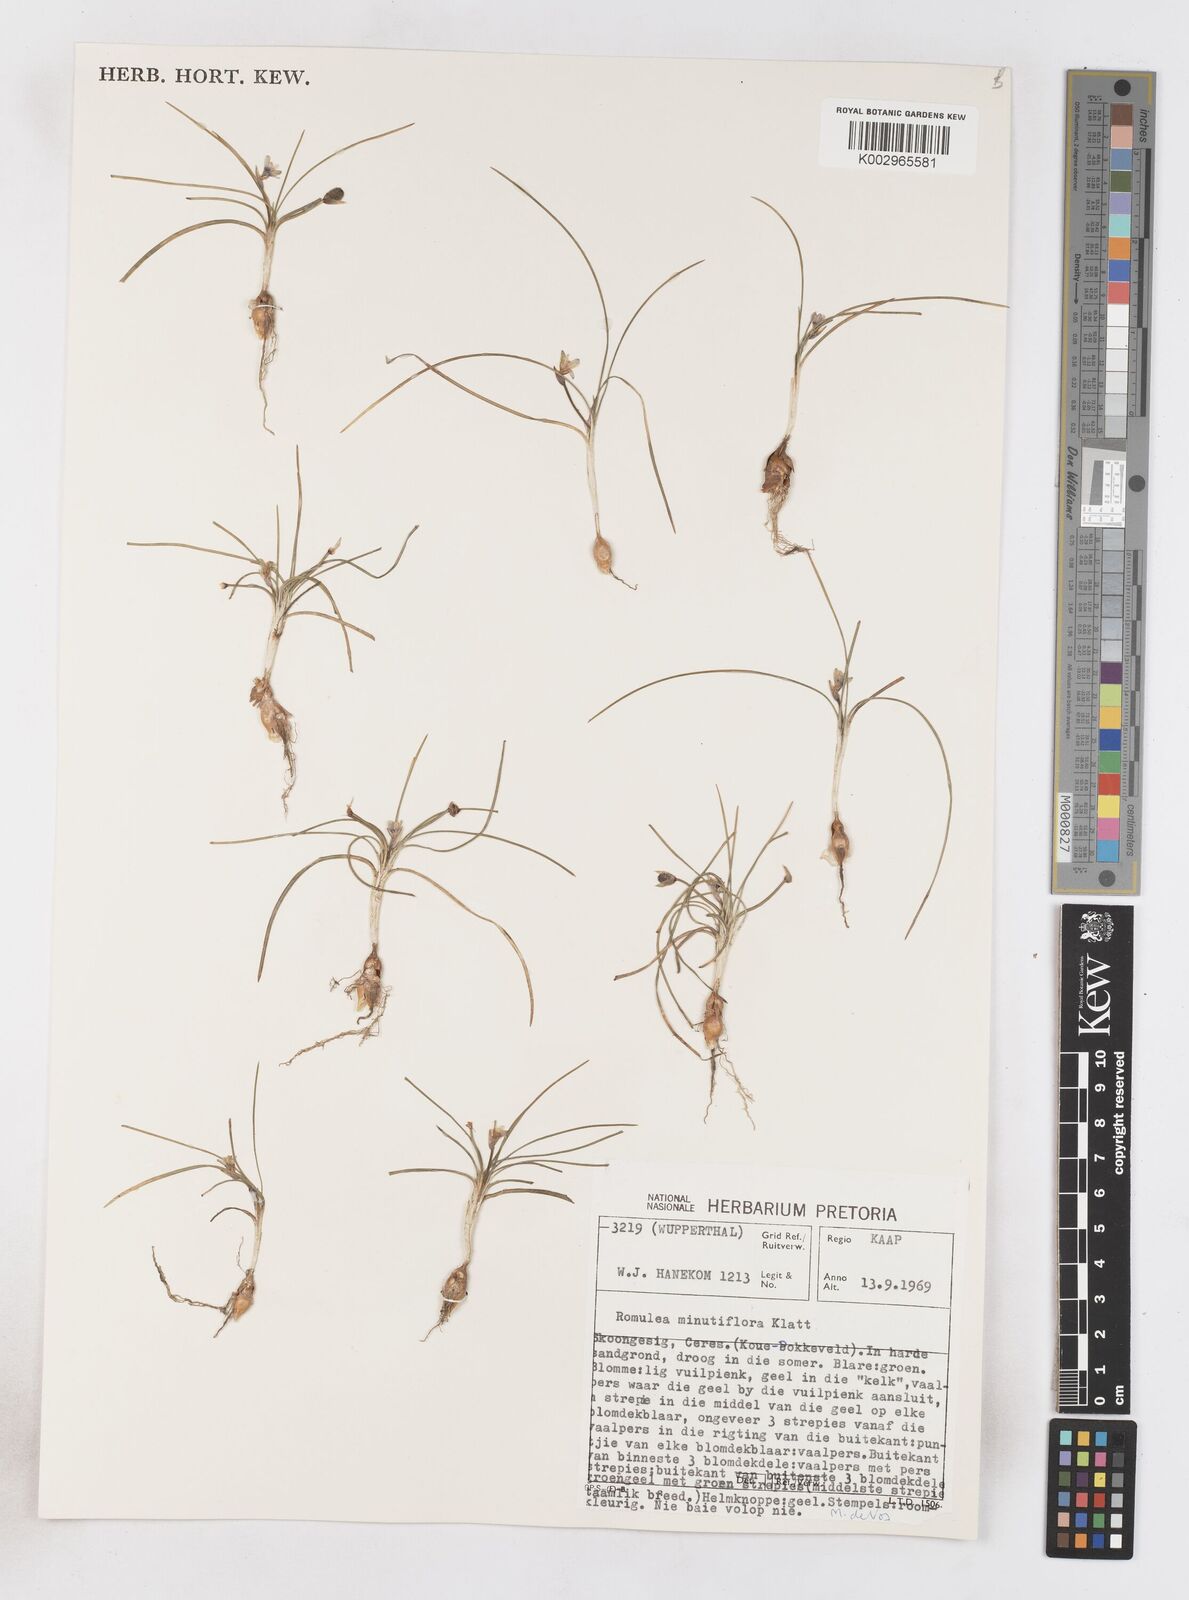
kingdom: Plantae
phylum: Tracheophyta
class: Liliopsida
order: Asparagales
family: Iridaceae
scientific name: Iridaceae
